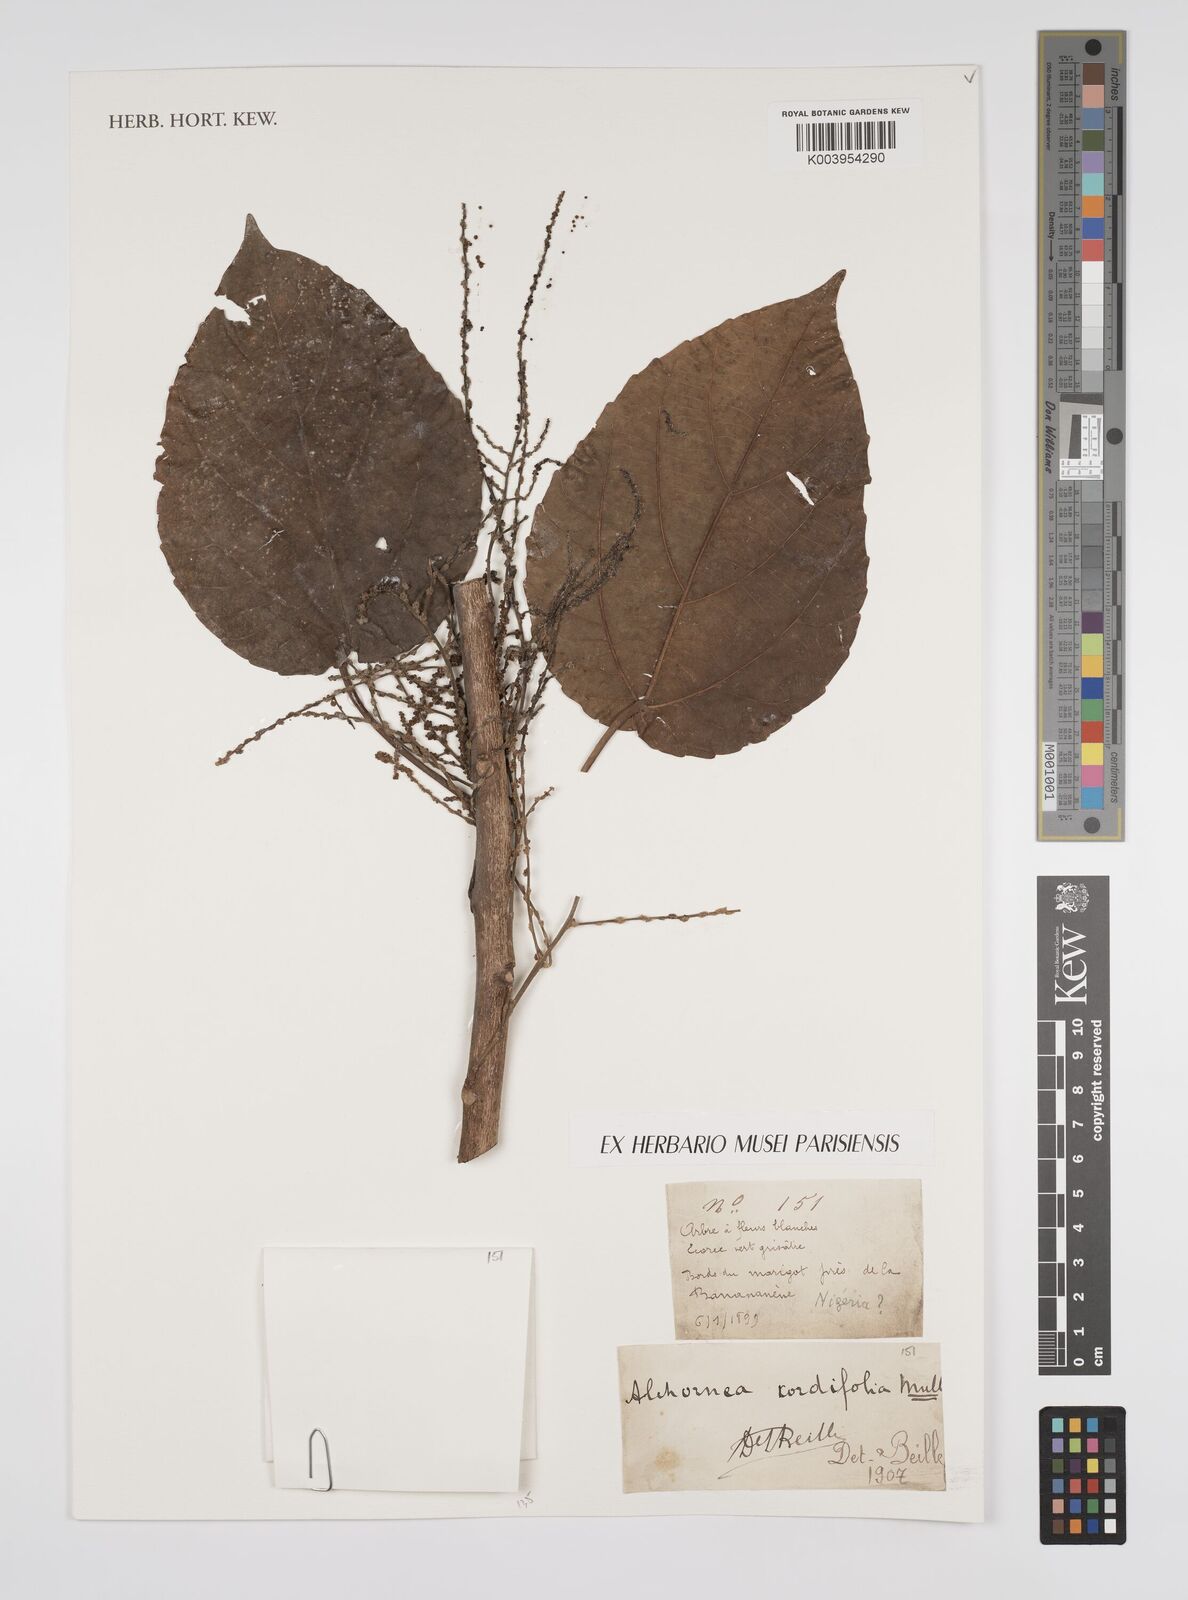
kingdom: Plantae
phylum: Tracheophyta
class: Magnoliopsida
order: Malpighiales
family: Euphorbiaceae
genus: Alchornea
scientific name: Alchornea cordifolia
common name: Christmasbush
